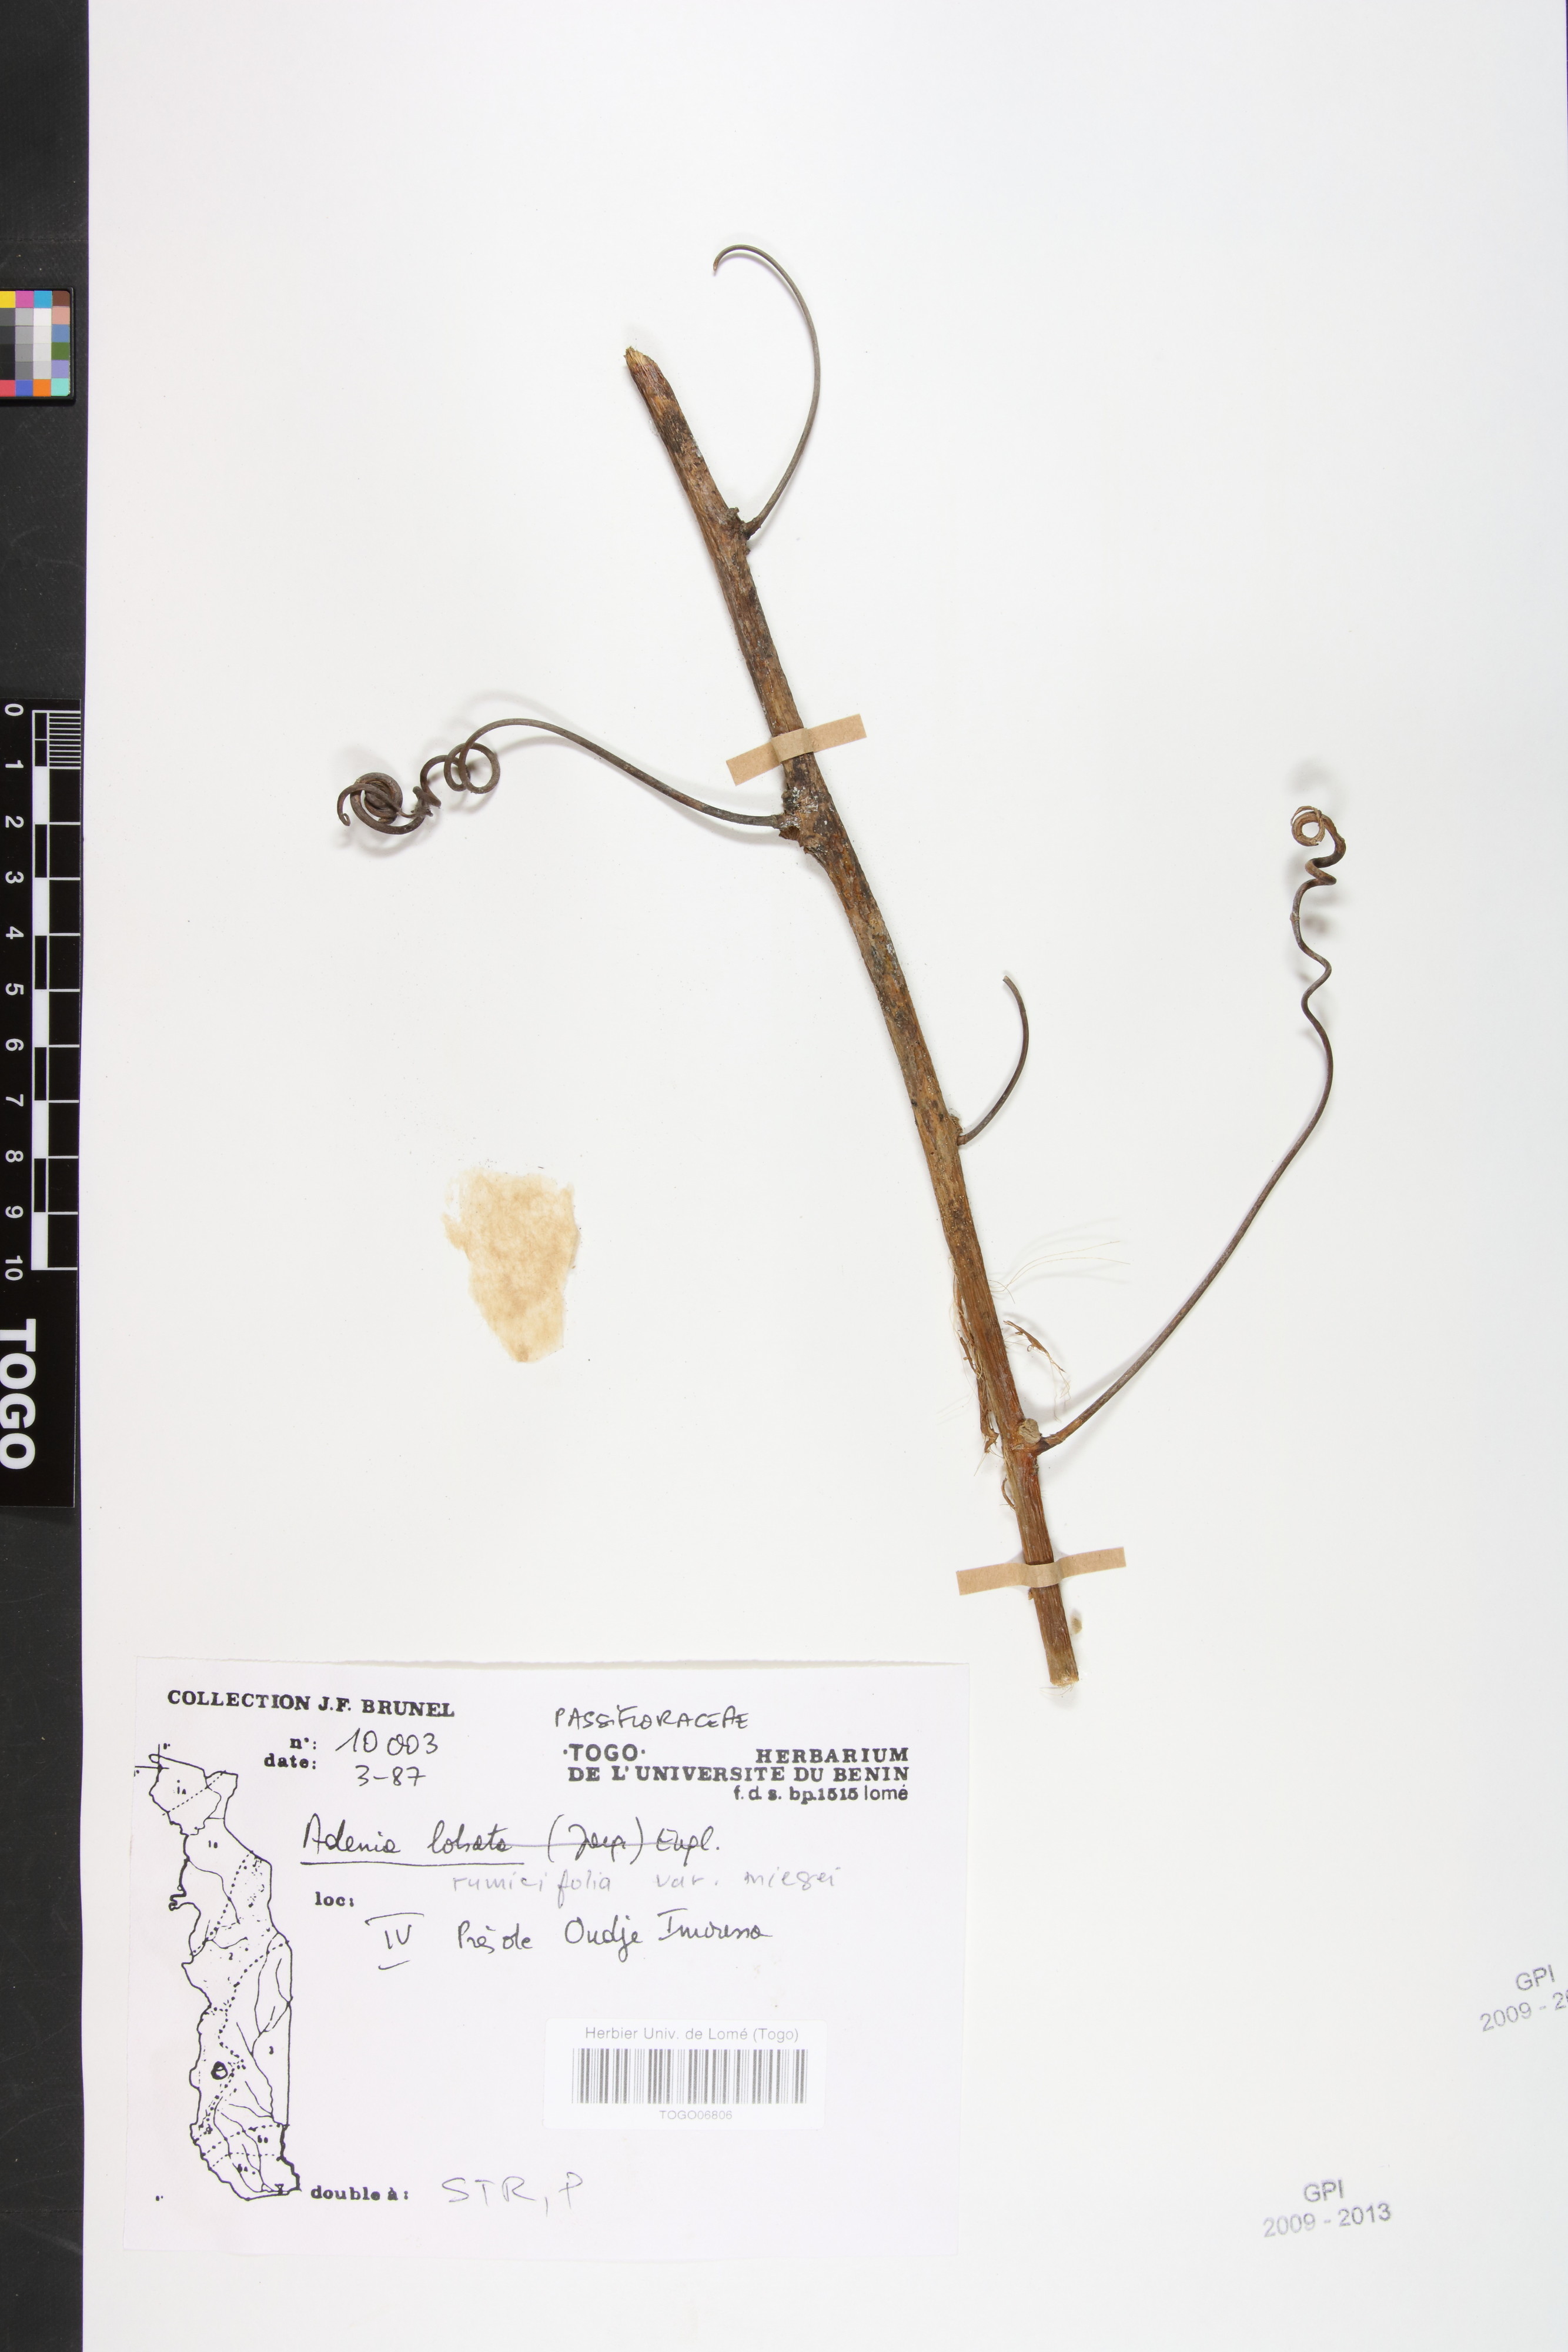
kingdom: Plantae
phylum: Tracheophyta
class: Magnoliopsida
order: Malpighiales
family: Passifloraceae
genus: Adenia
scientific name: Adenia lobata
